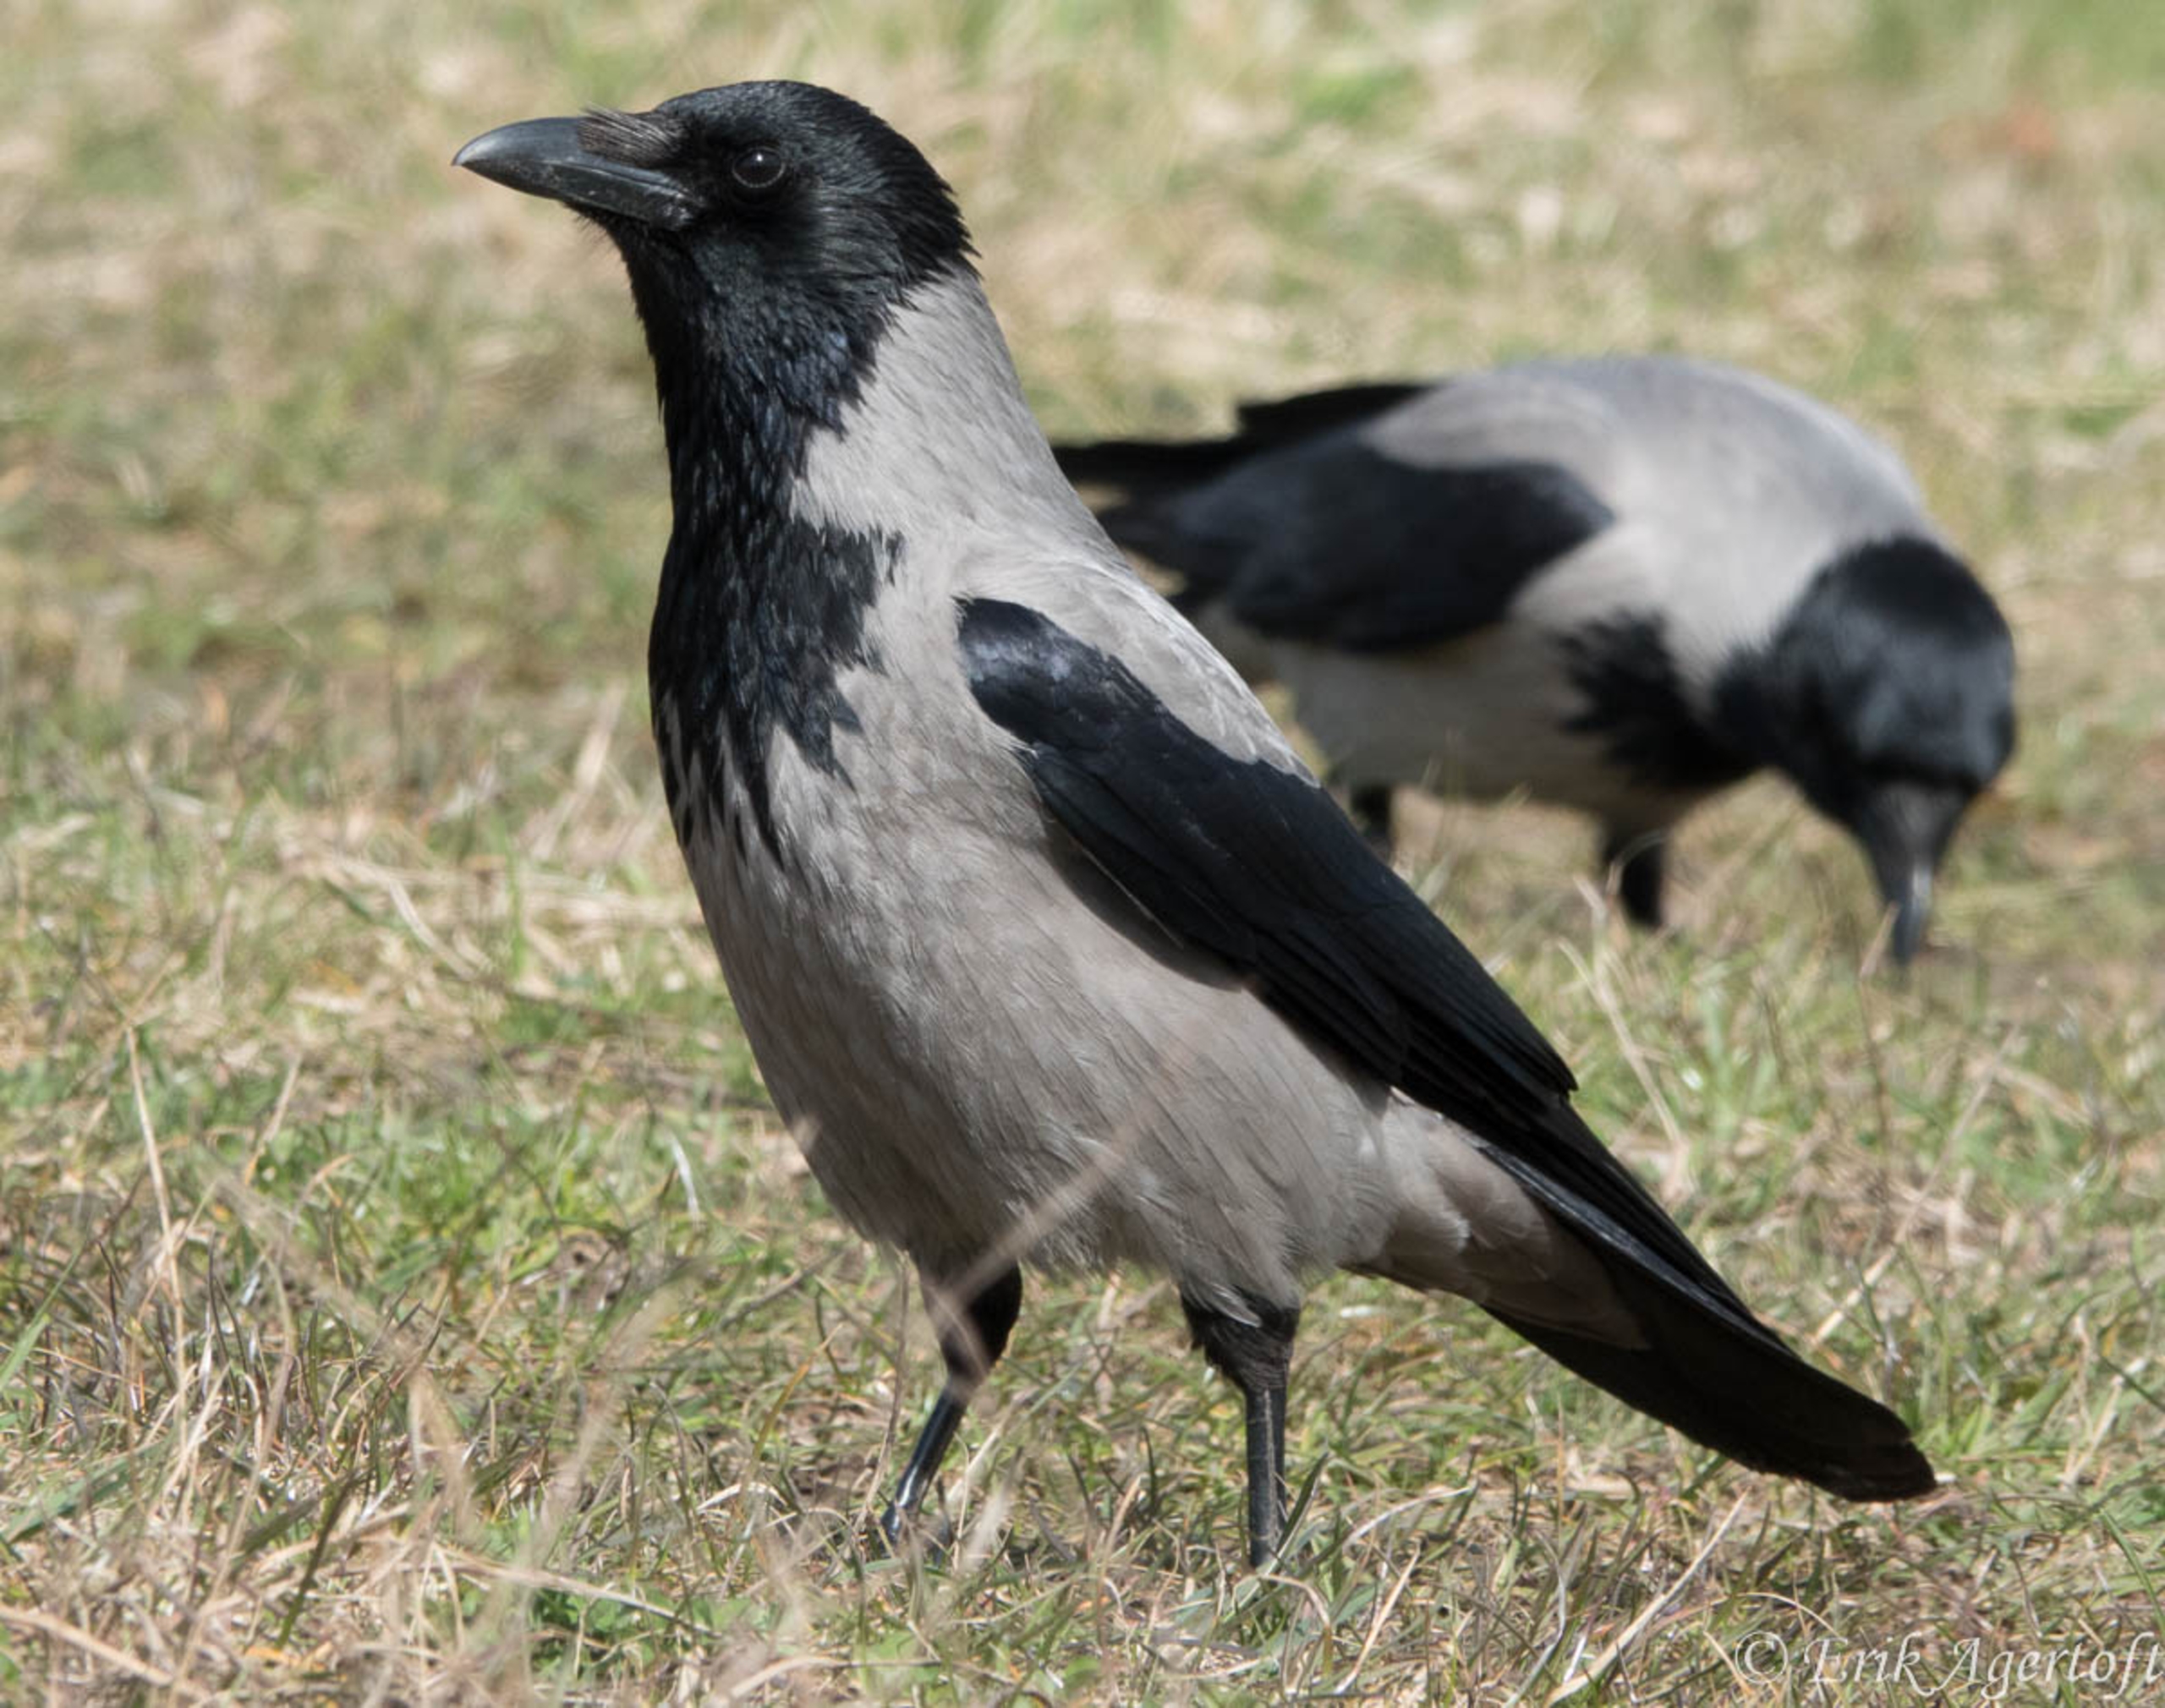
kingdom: Animalia
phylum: Chordata
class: Aves
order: Passeriformes
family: Corvidae
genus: Corvus
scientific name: Corvus cornix
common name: Gråkrage
